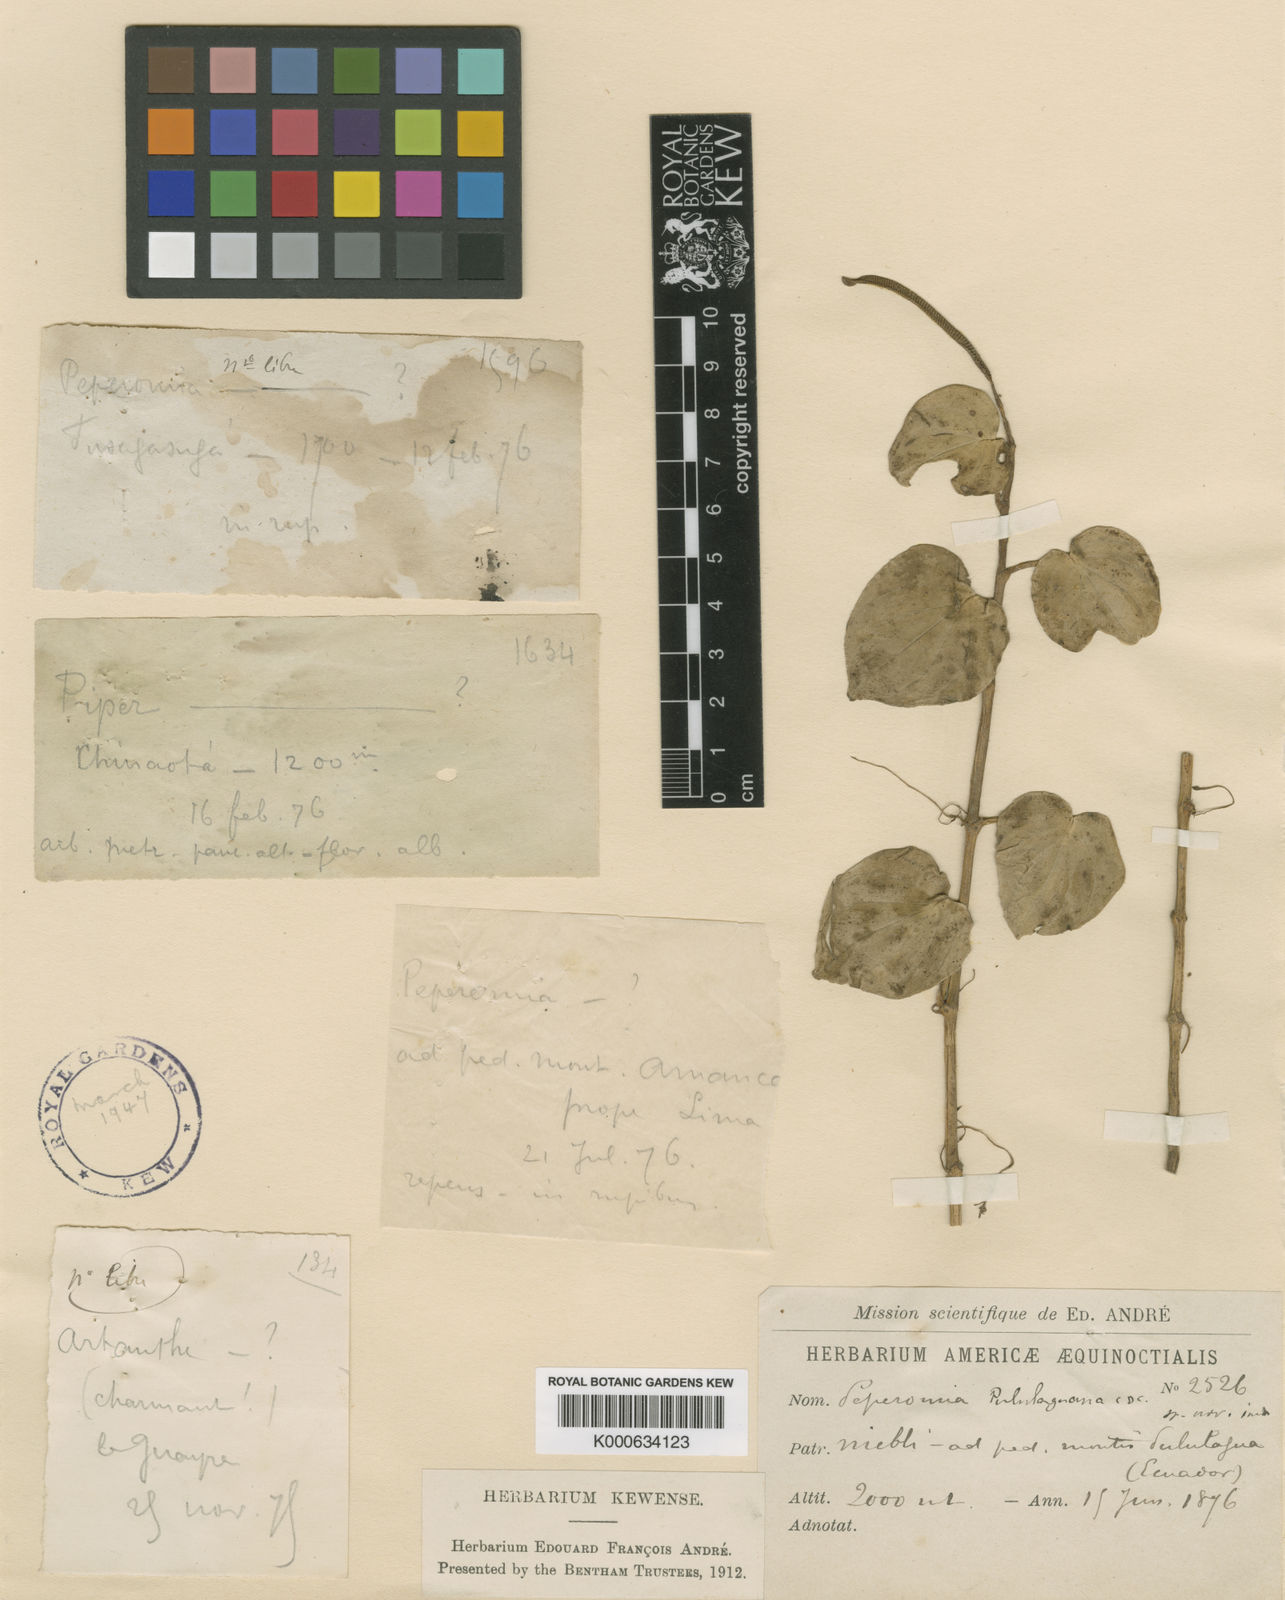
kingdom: Plantae
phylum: Tracheophyta
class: Magnoliopsida
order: Piperales
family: Piperaceae
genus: Peperomia
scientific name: Peperomia pululaguana
